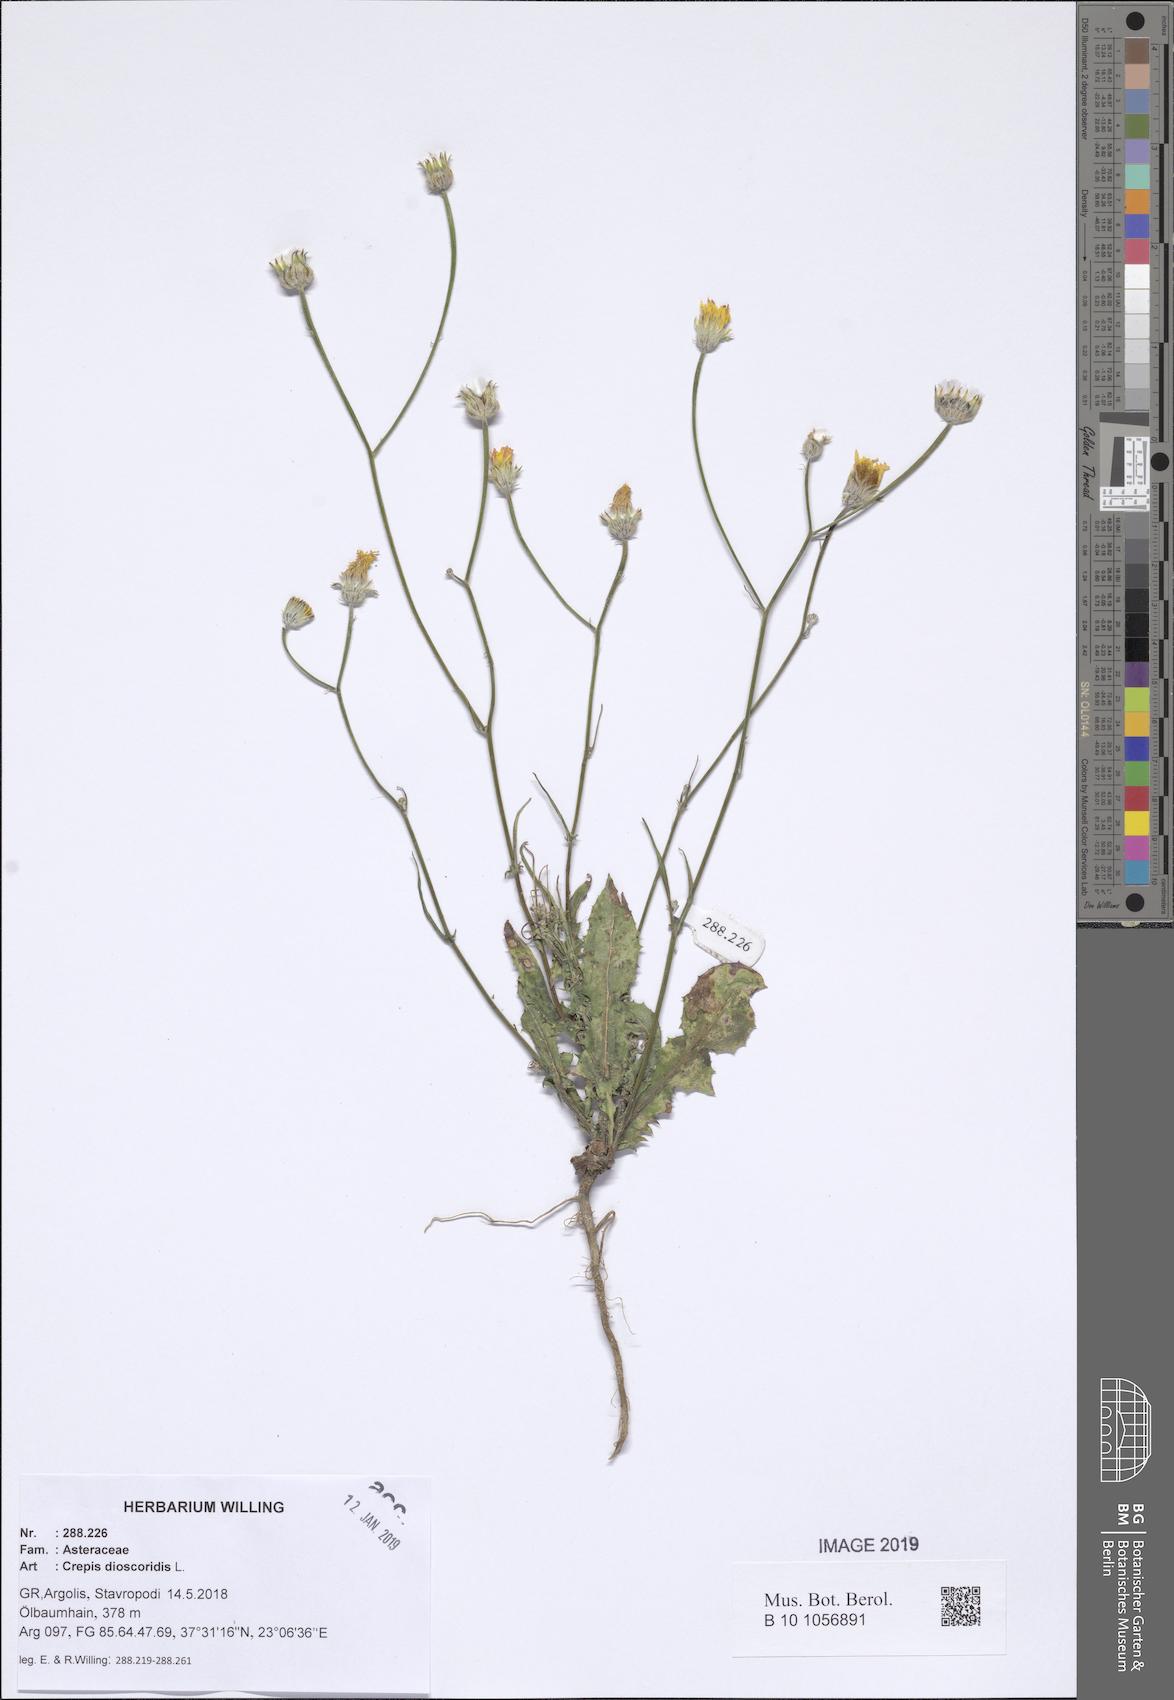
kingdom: Plantae
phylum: Tracheophyta
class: Magnoliopsida
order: Asterales
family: Asteraceae
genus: Crepis
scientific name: Crepis dioscoridis
